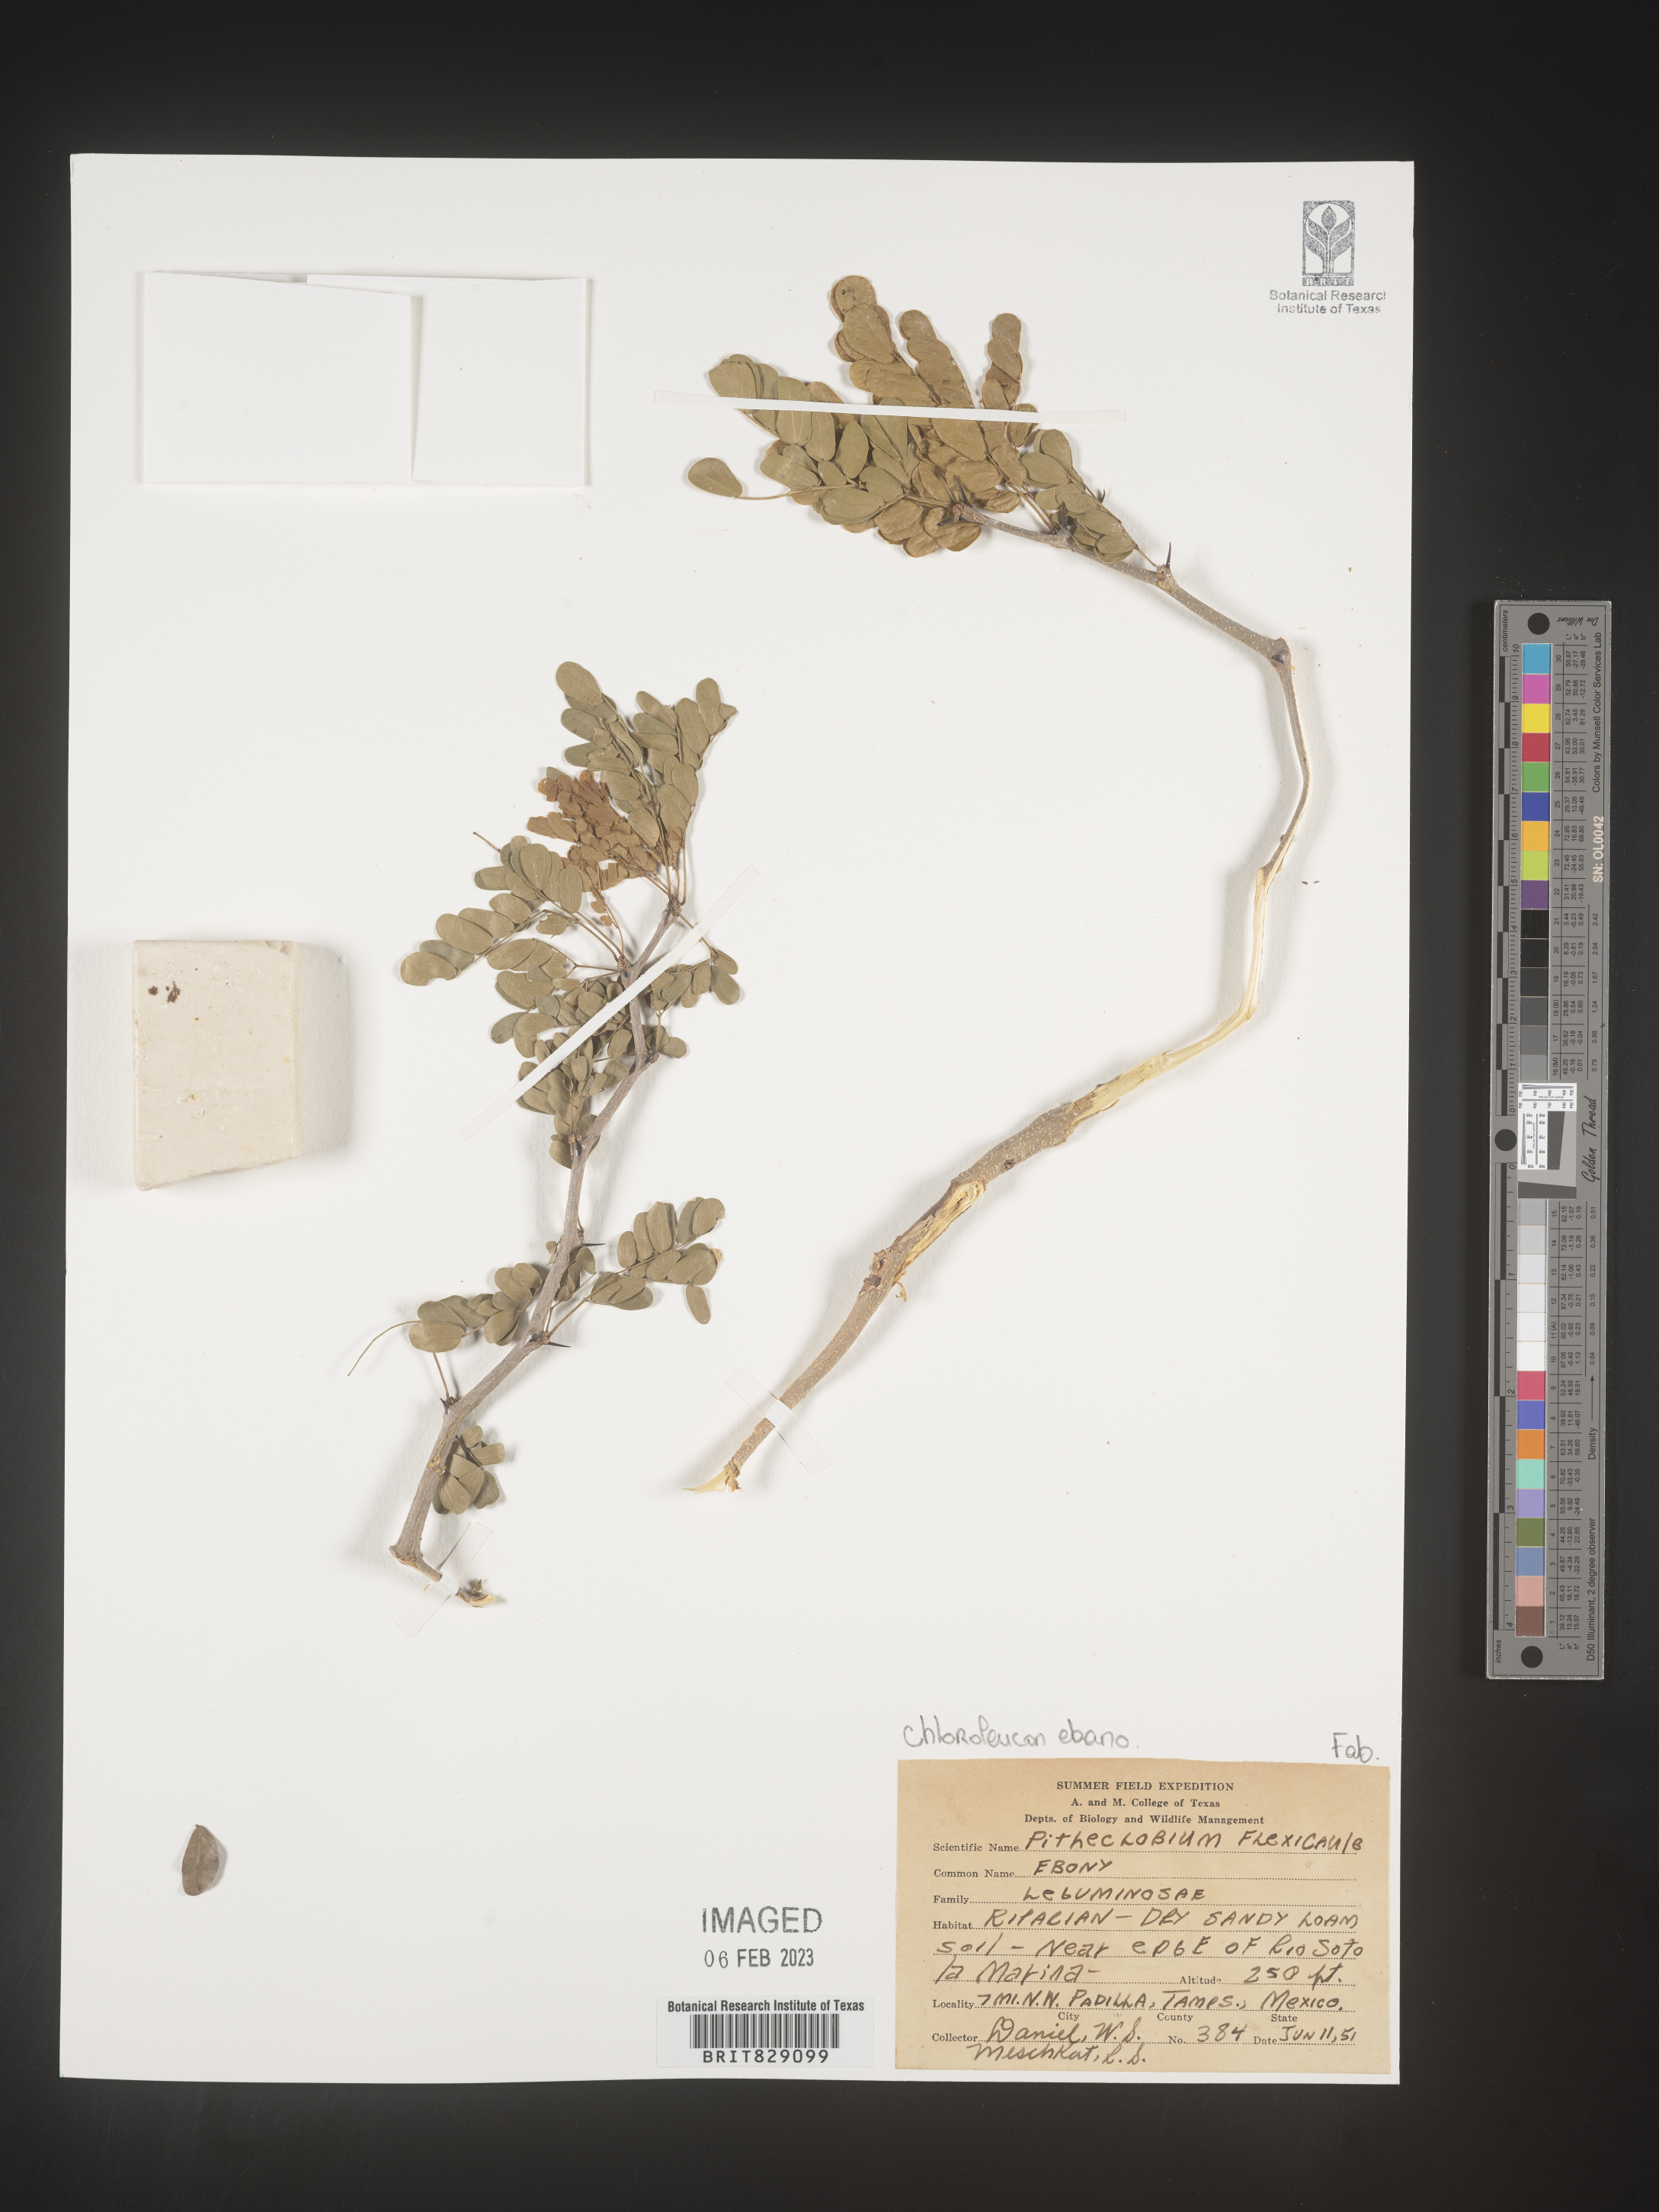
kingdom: Plantae
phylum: Tracheophyta
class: Magnoliopsida
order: Fabales
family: Fabaceae
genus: Pithecellobium
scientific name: Pithecellobium
